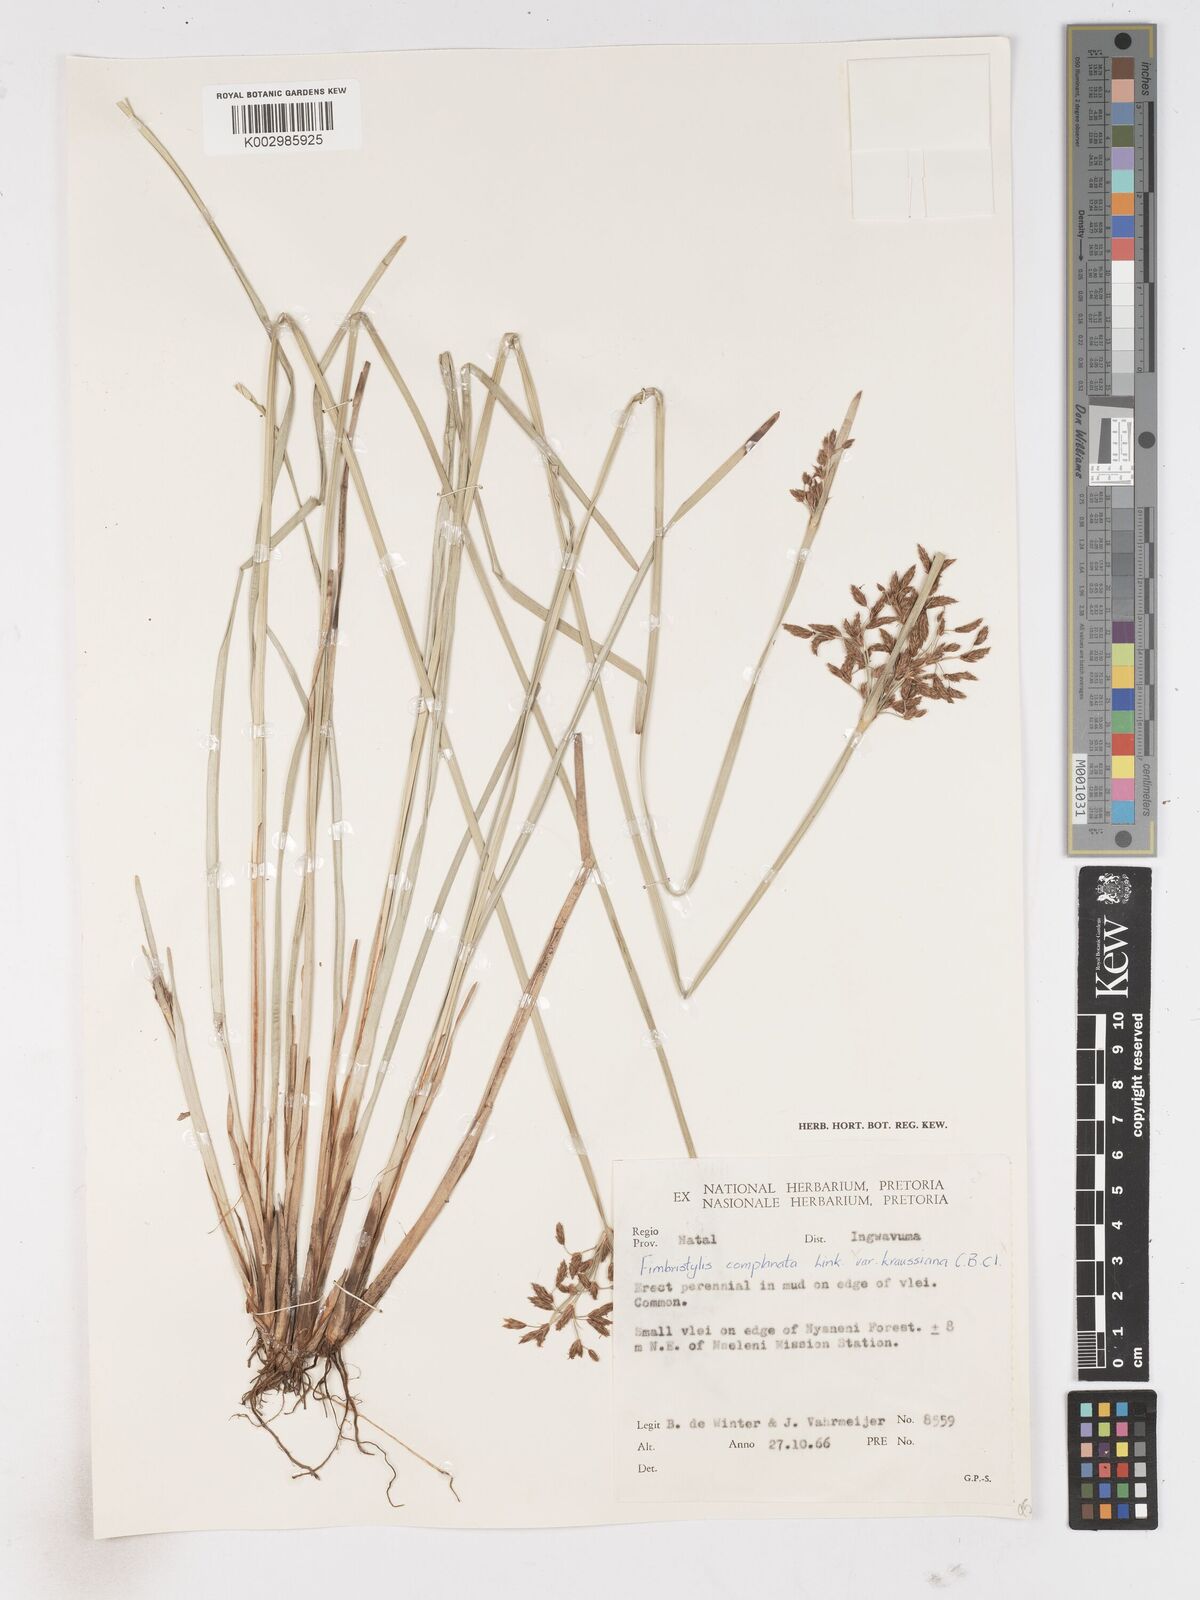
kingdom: Plantae
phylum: Tracheophyta
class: Liliopsida
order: Poales
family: Cyperaceae
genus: Fimbristylis
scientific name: Fimbristylis complanata
